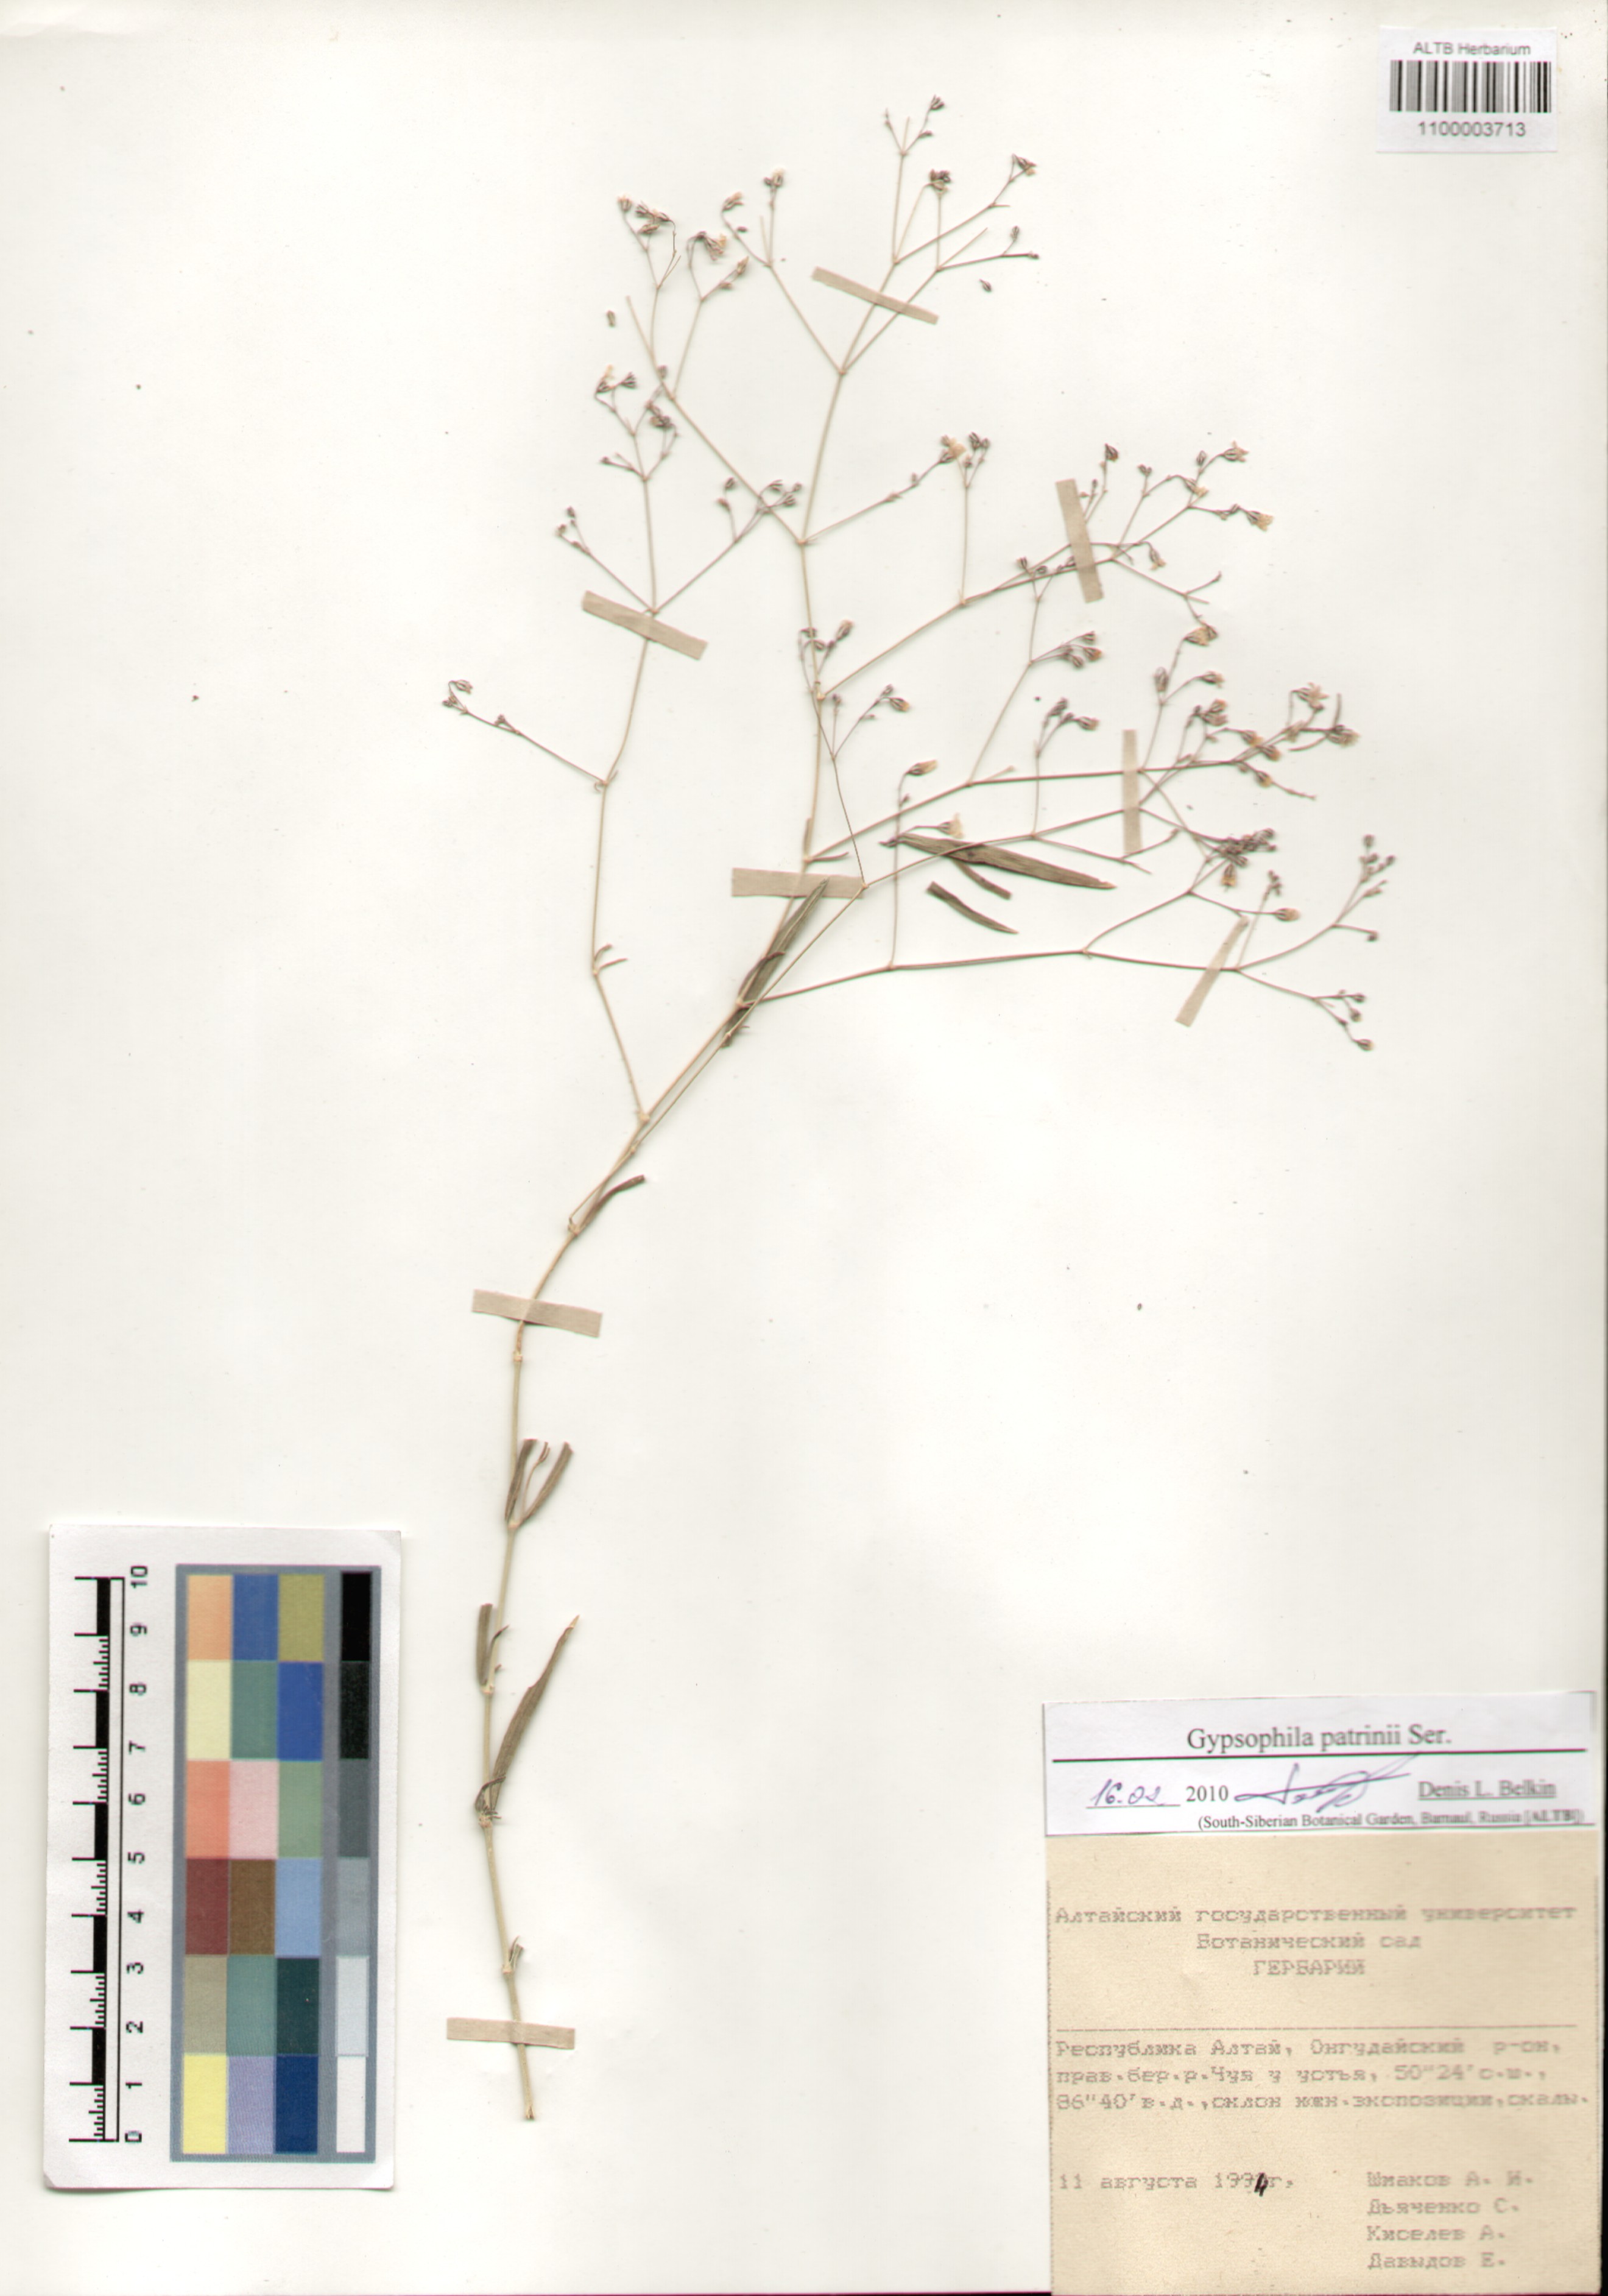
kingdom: Plantae
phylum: Tracheophyta
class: Magnoliopsida
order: Caryophyllales
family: Caryophyllaceae
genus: Gypsophila
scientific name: Gypsophila patrinii
